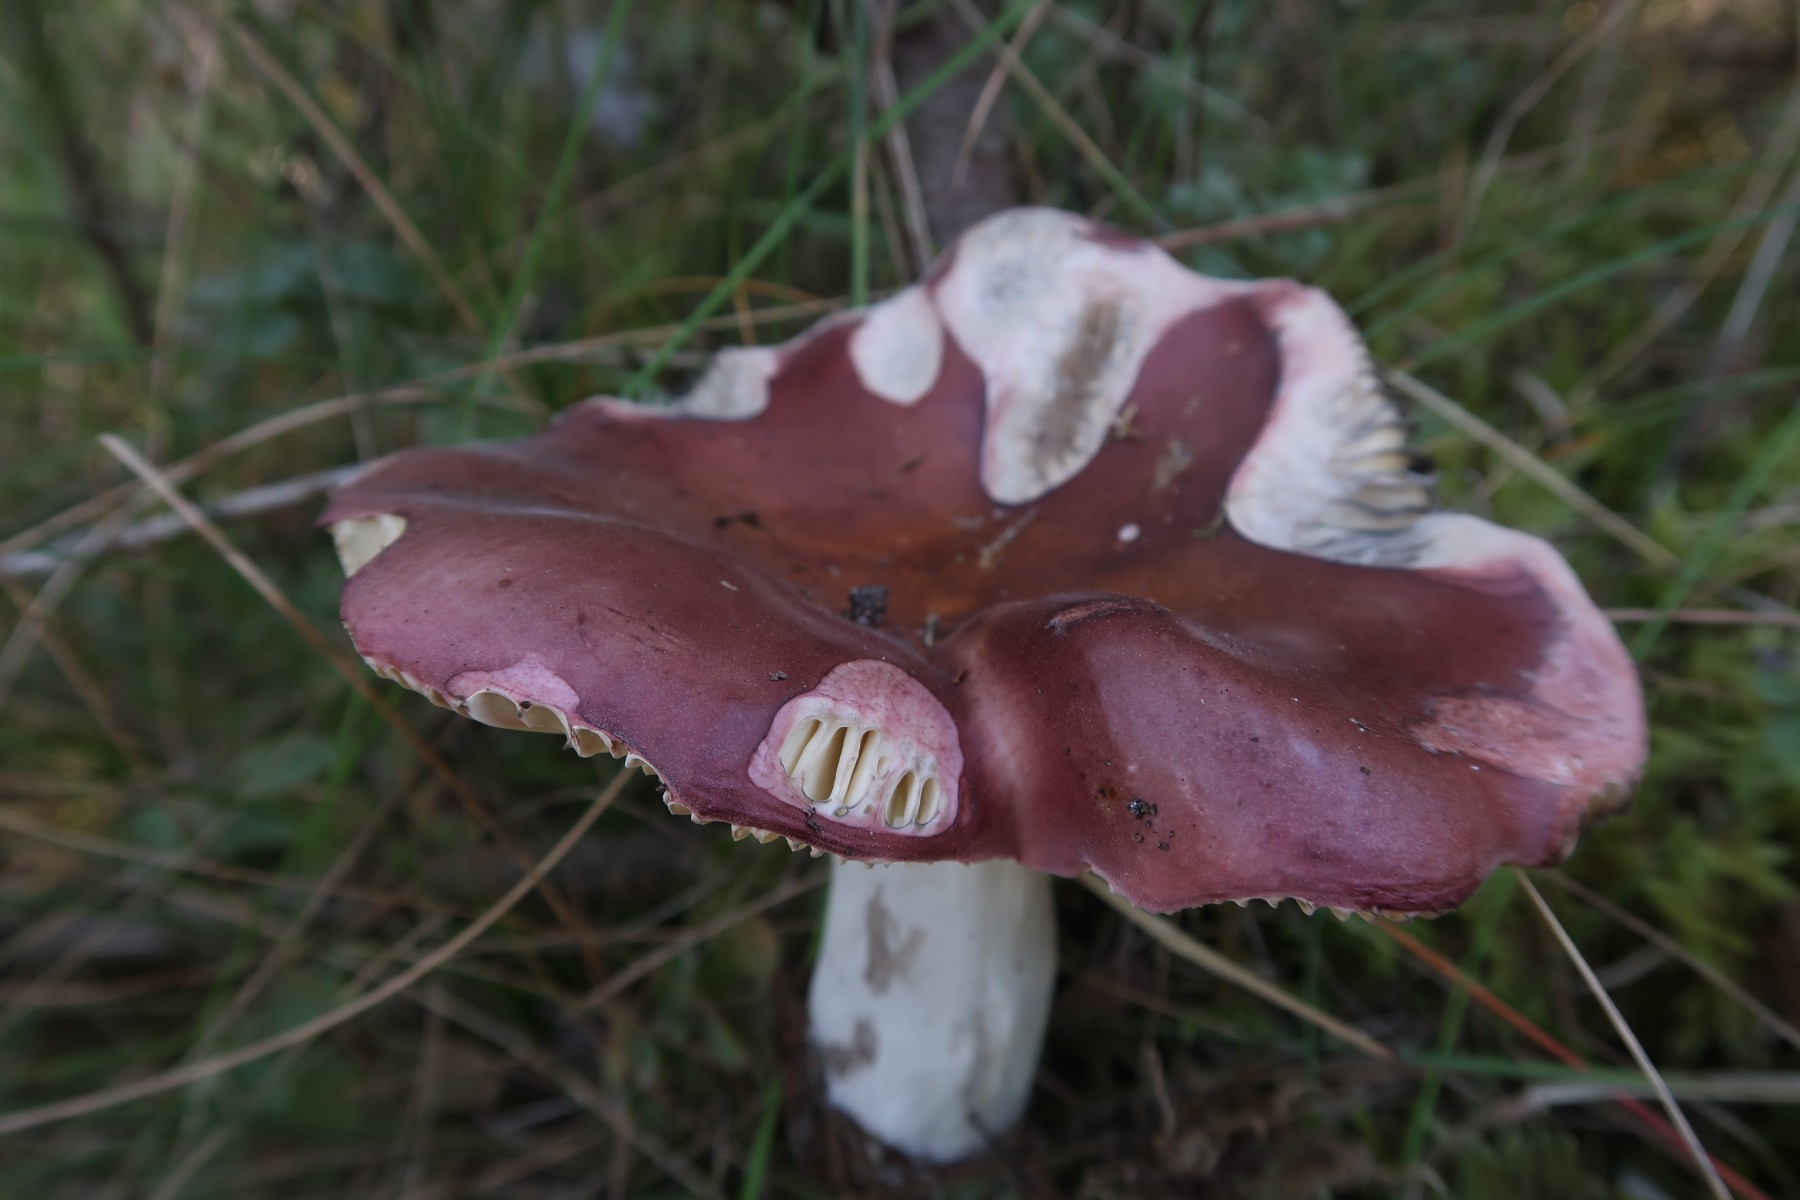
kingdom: Fungi
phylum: Basidiomycota
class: Agaricomycetes
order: Russulales
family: Russulaceae
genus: Russula
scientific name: Russula vinosa
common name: vinrød skørhat
